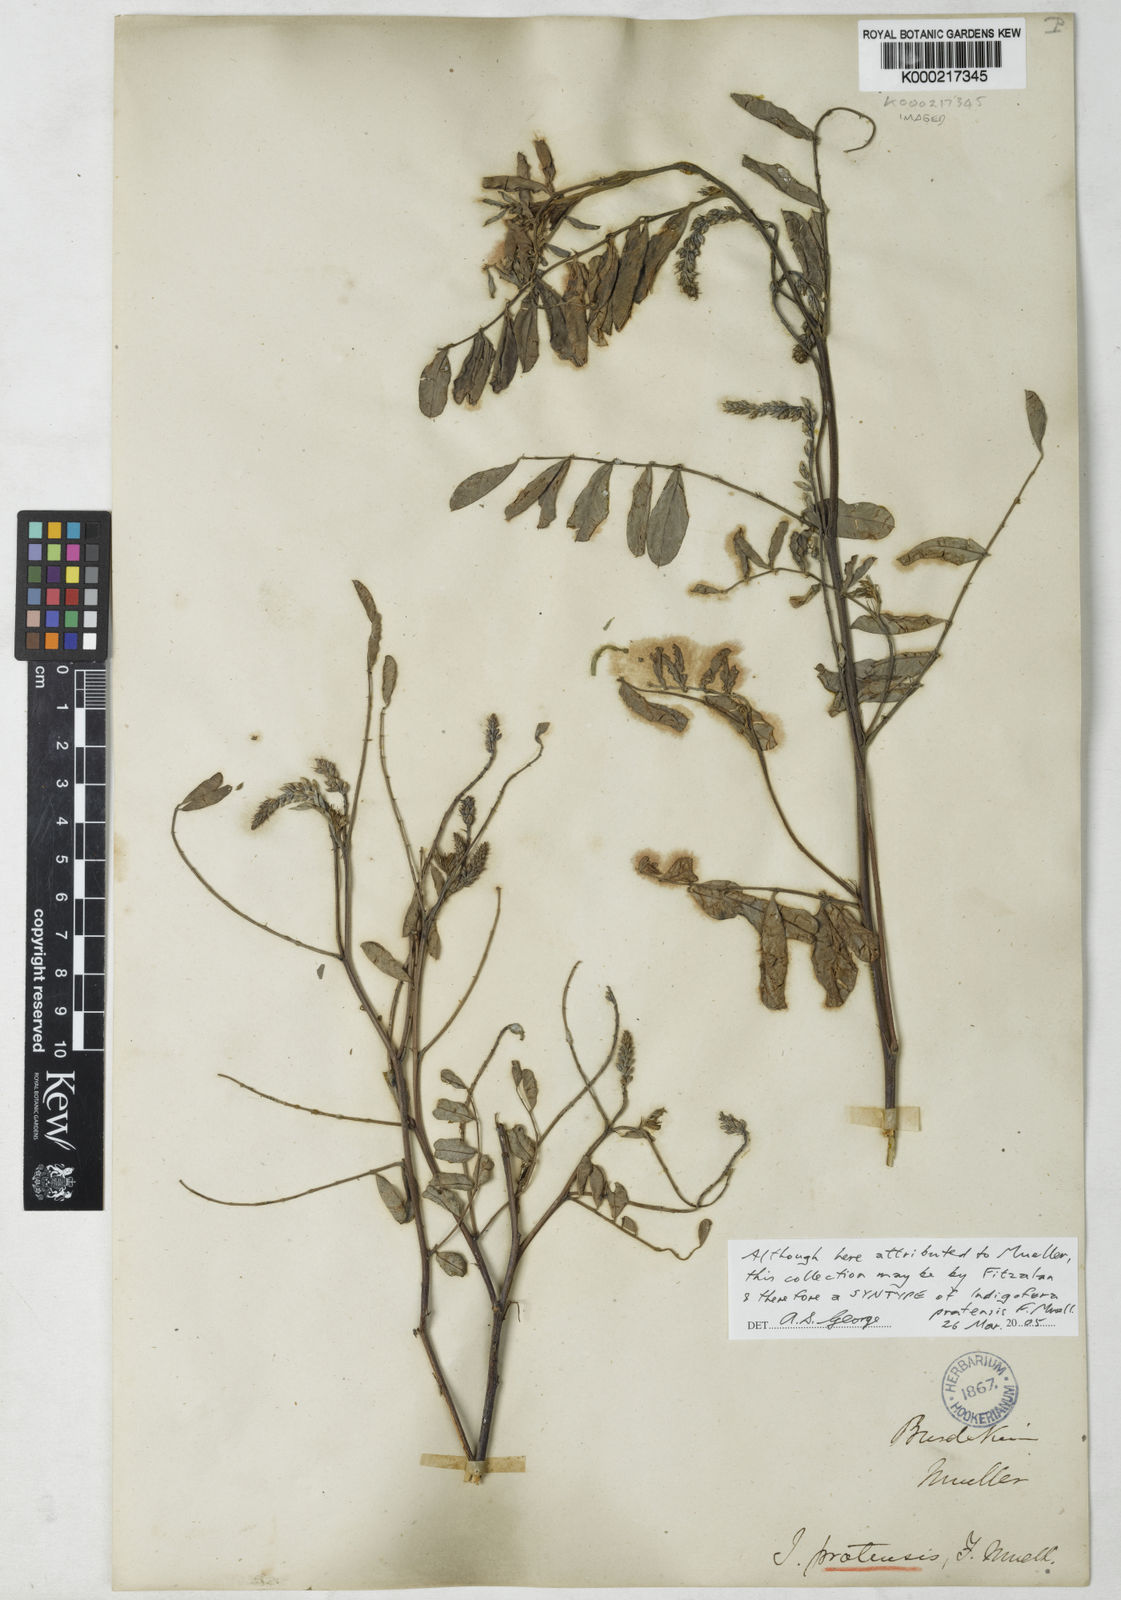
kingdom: Plantae
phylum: Tracheophyta
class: Magnoliopsida
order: Fabales
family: Fabaceae
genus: Indigofera
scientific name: Indigofera pratensis
